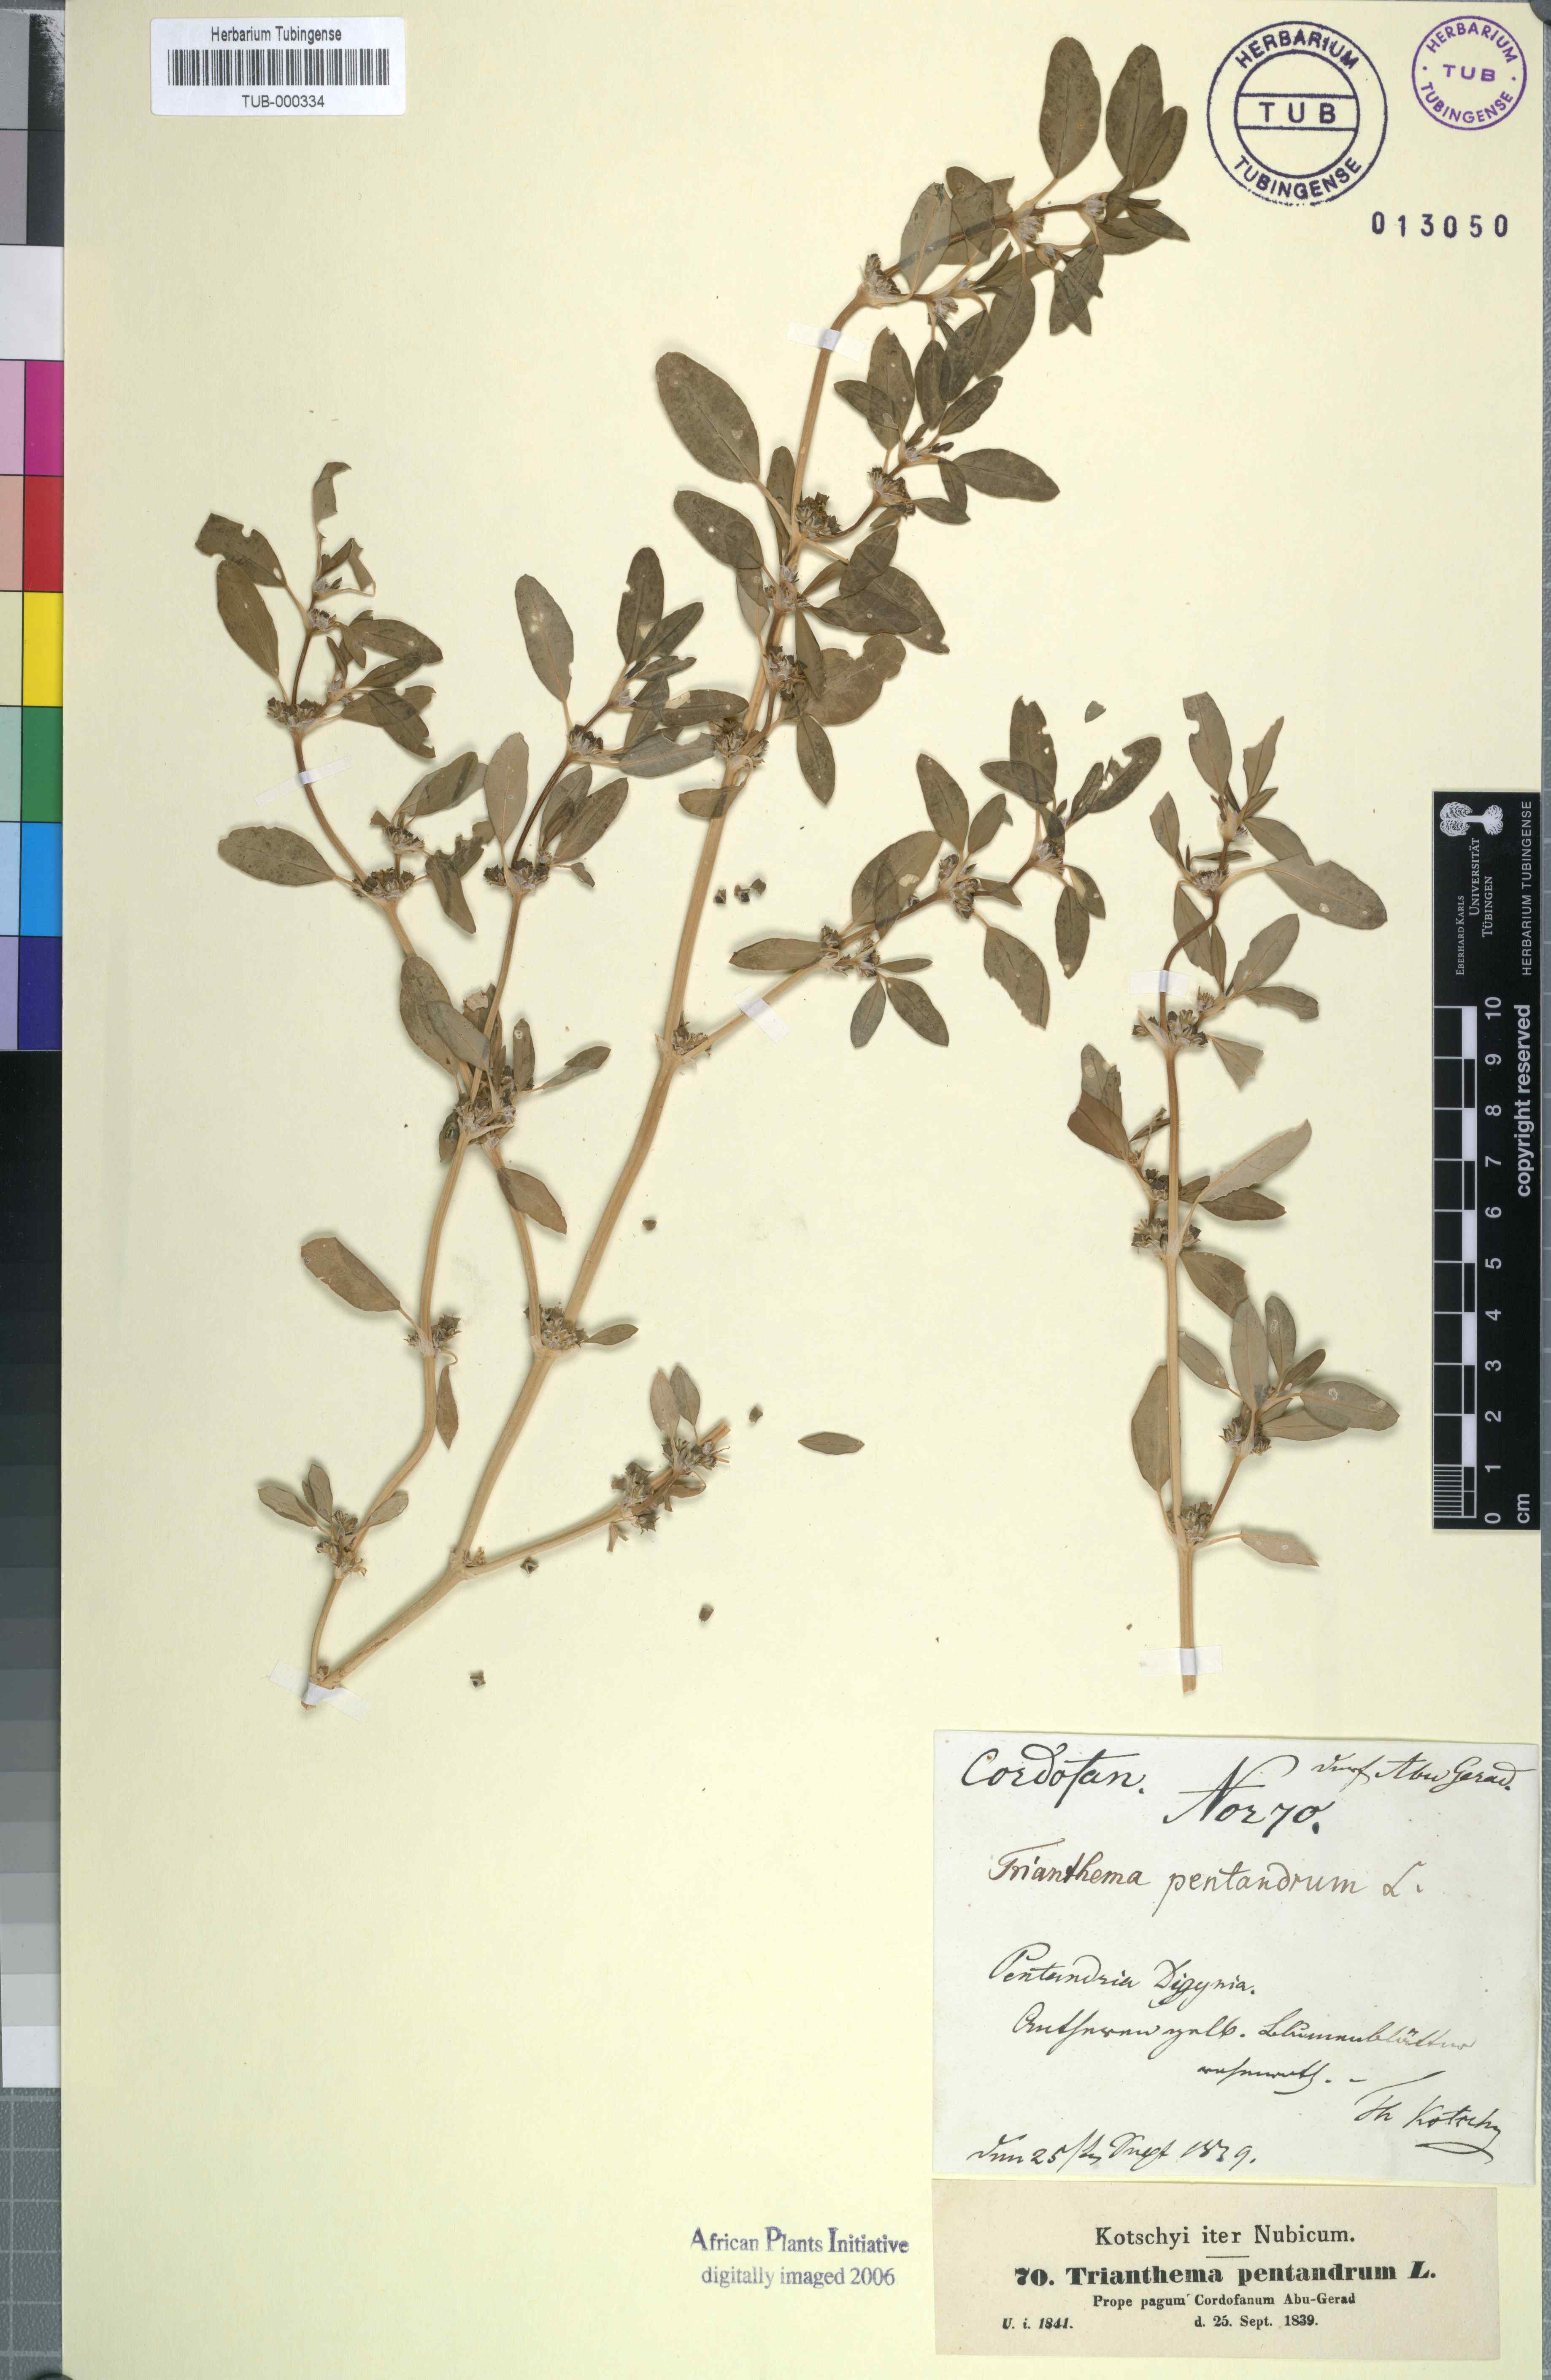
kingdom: Plantae
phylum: Tracheophyta
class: Magnoliopsida
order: Caryophyllales
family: Aizoaceae
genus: Zaleya
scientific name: Zaleya pentandra
